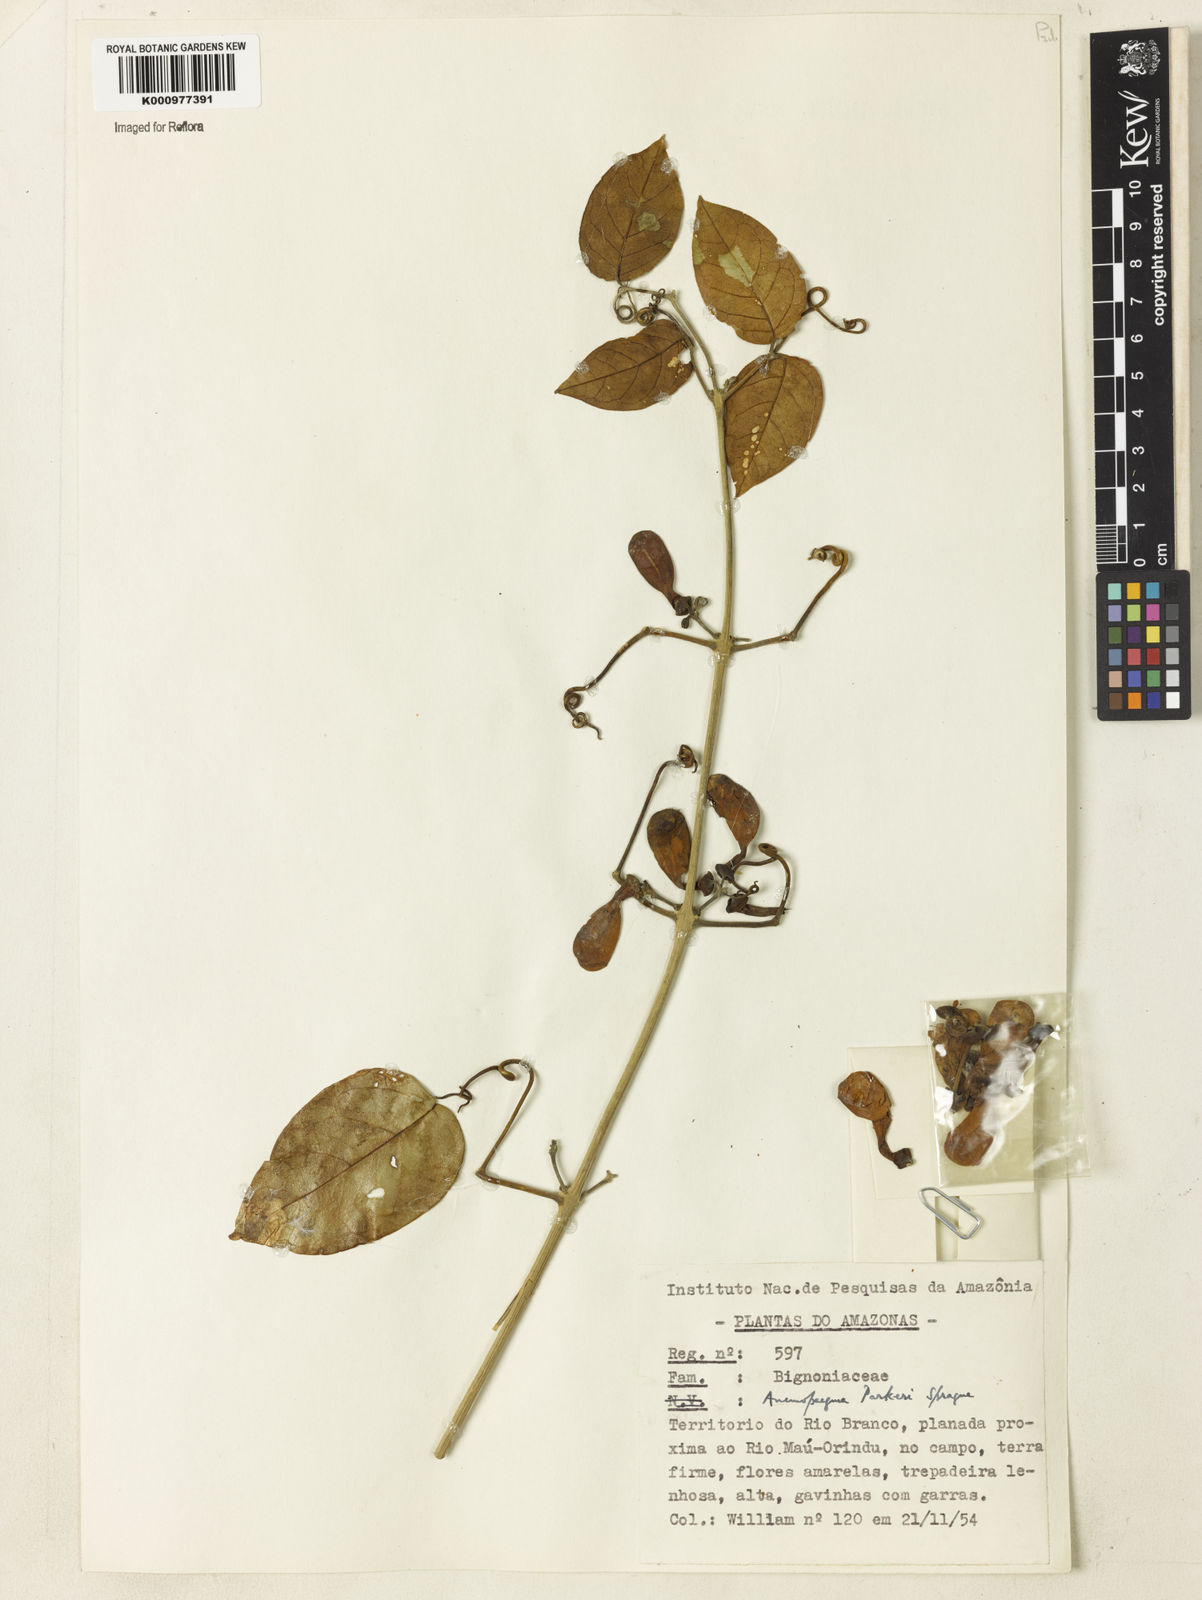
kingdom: Plantae
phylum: Tracheophyta
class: Magnoliopsida
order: Lamiales
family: Bignoniaceae
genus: Anemopaegma
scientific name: Anemopaegma parkeri
